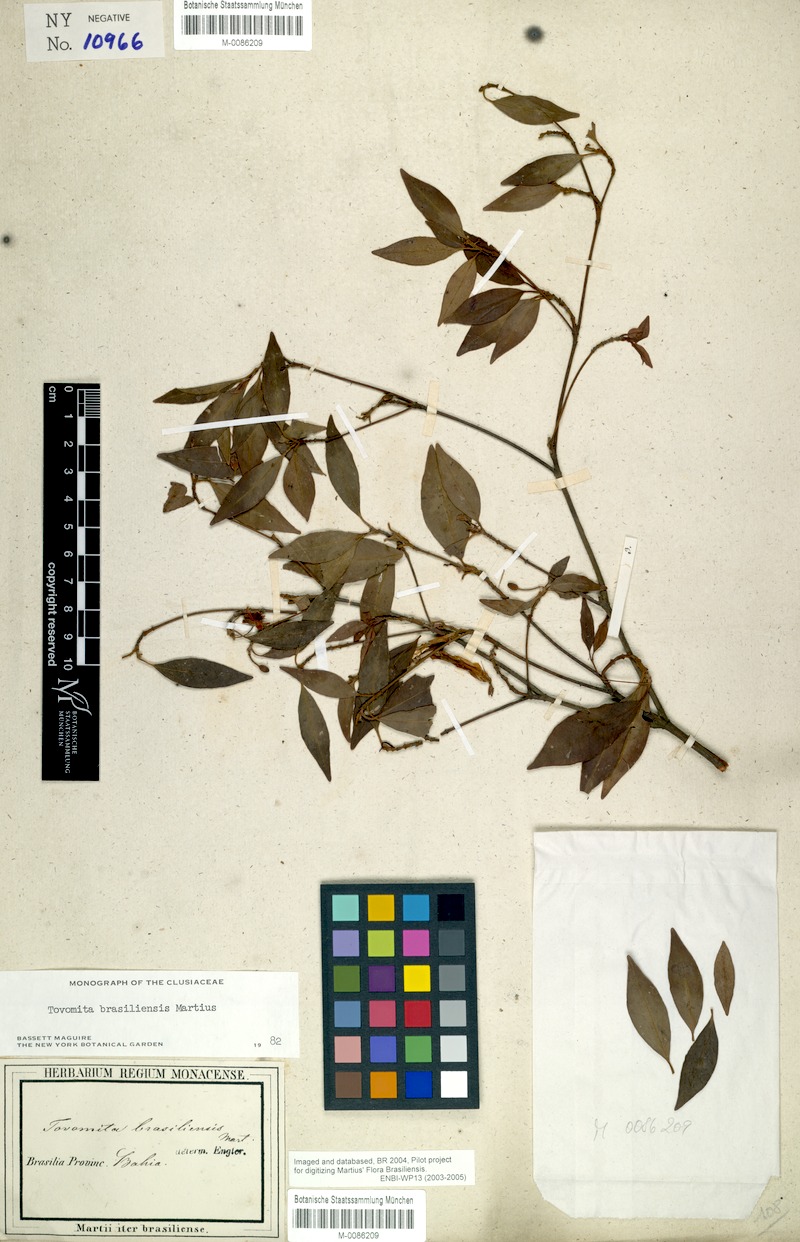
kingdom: Plantae
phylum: Tracheophyta
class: Magnoliopsida
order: Malpighiales
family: Clusiaceae
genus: Tovomita
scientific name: Tovomita fructipendula
